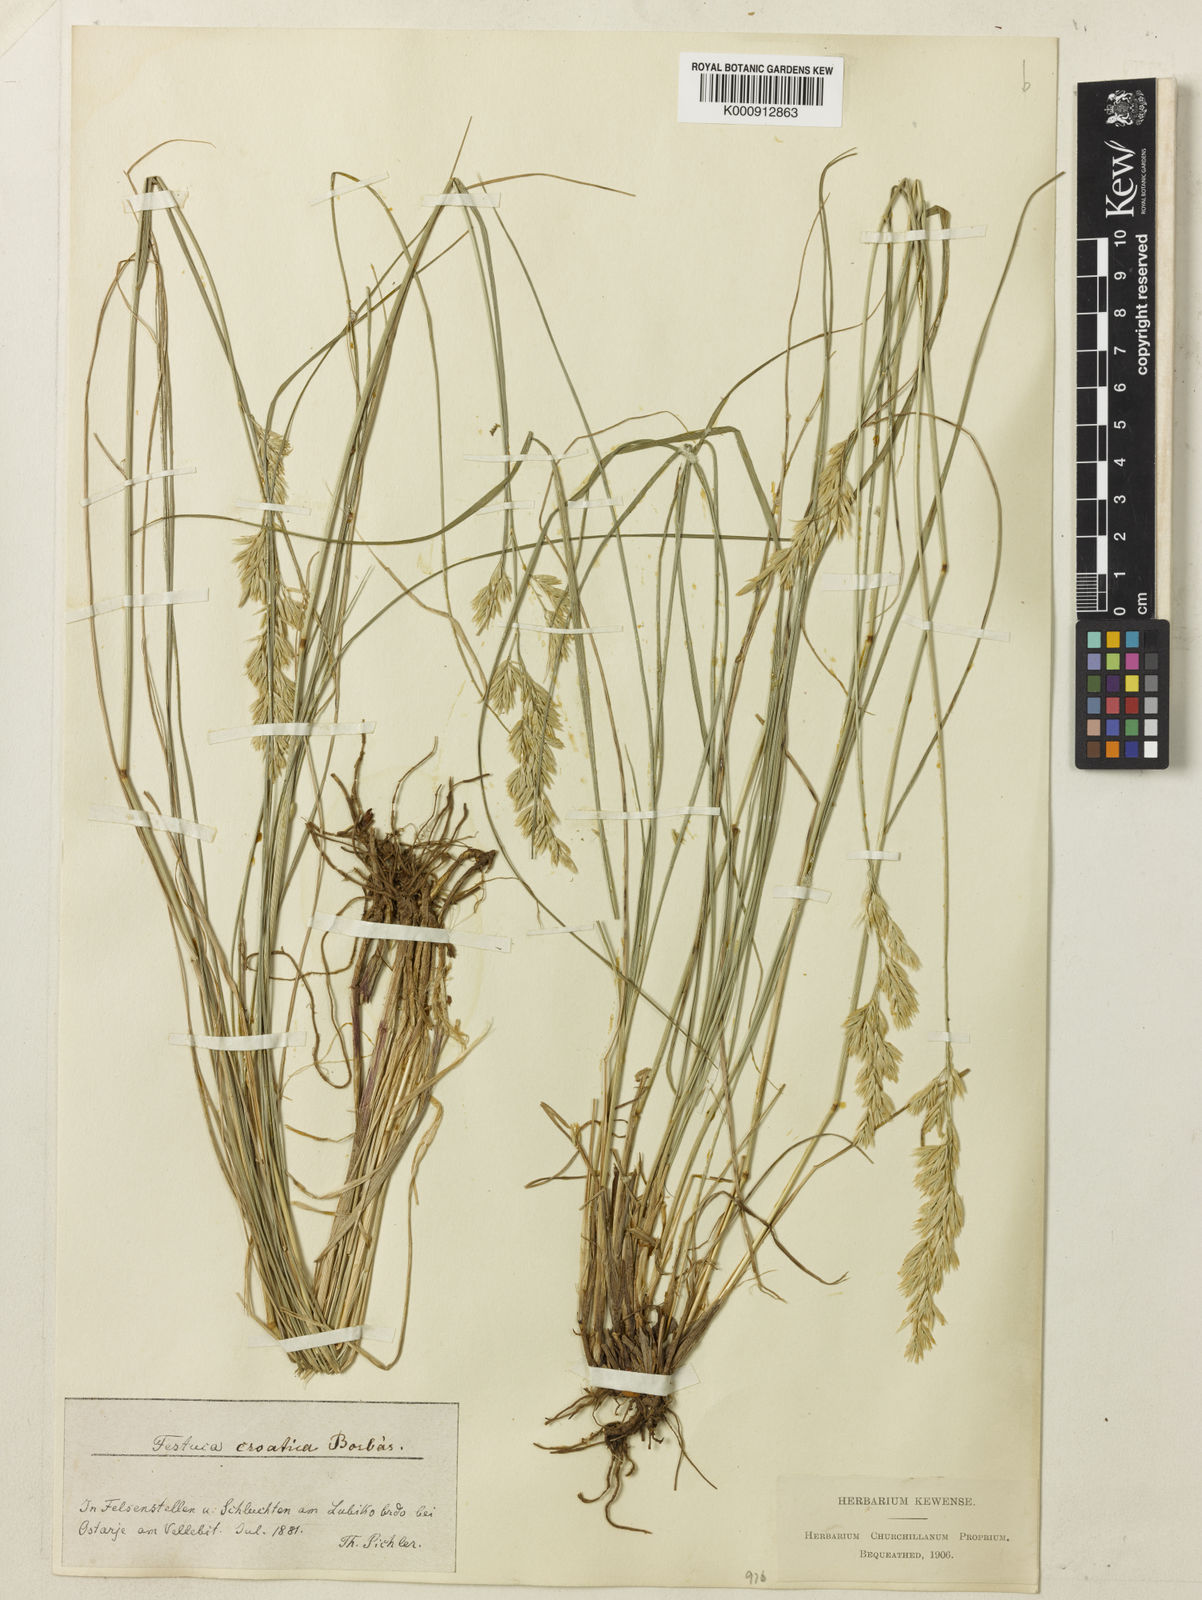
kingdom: Plantae
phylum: Tracheophyta
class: Liliopsida
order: Poales
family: Poaceae
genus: Festuca
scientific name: Festuca
